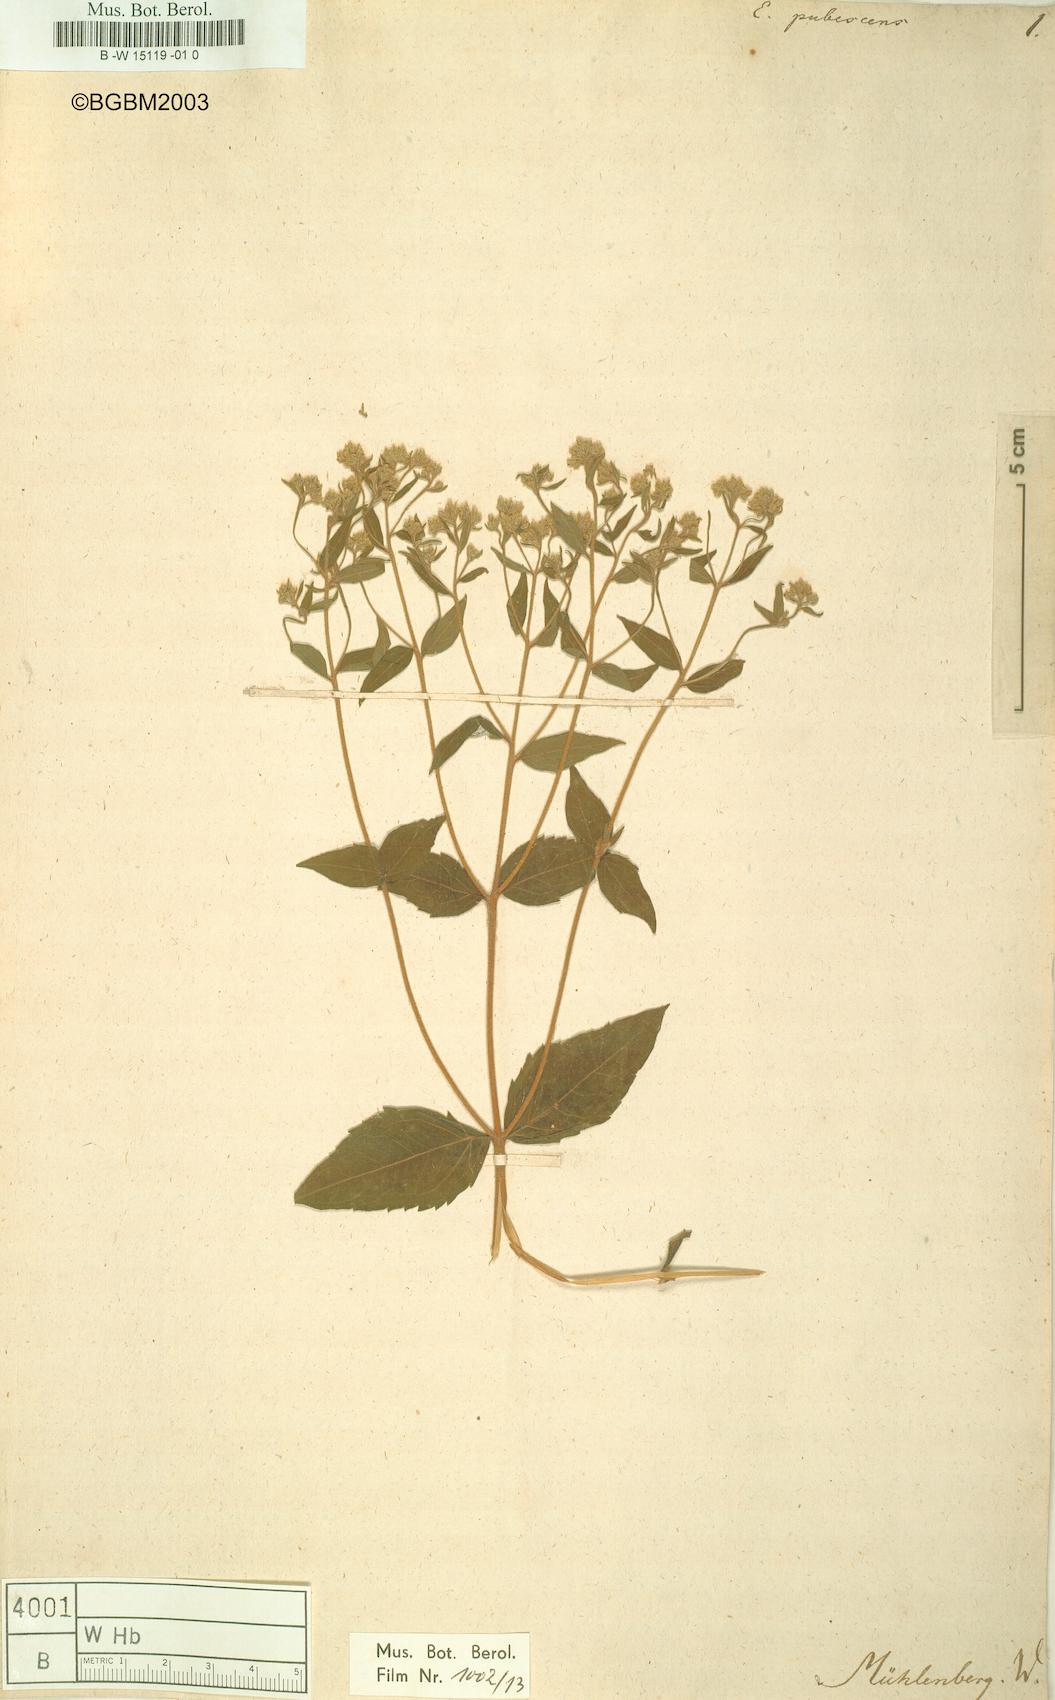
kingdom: Plantae
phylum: Tracheophyta
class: Magnoliopsida
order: Asterales
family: Asteraceae
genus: Eupatorium
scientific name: Eupatorium rotundifolium
